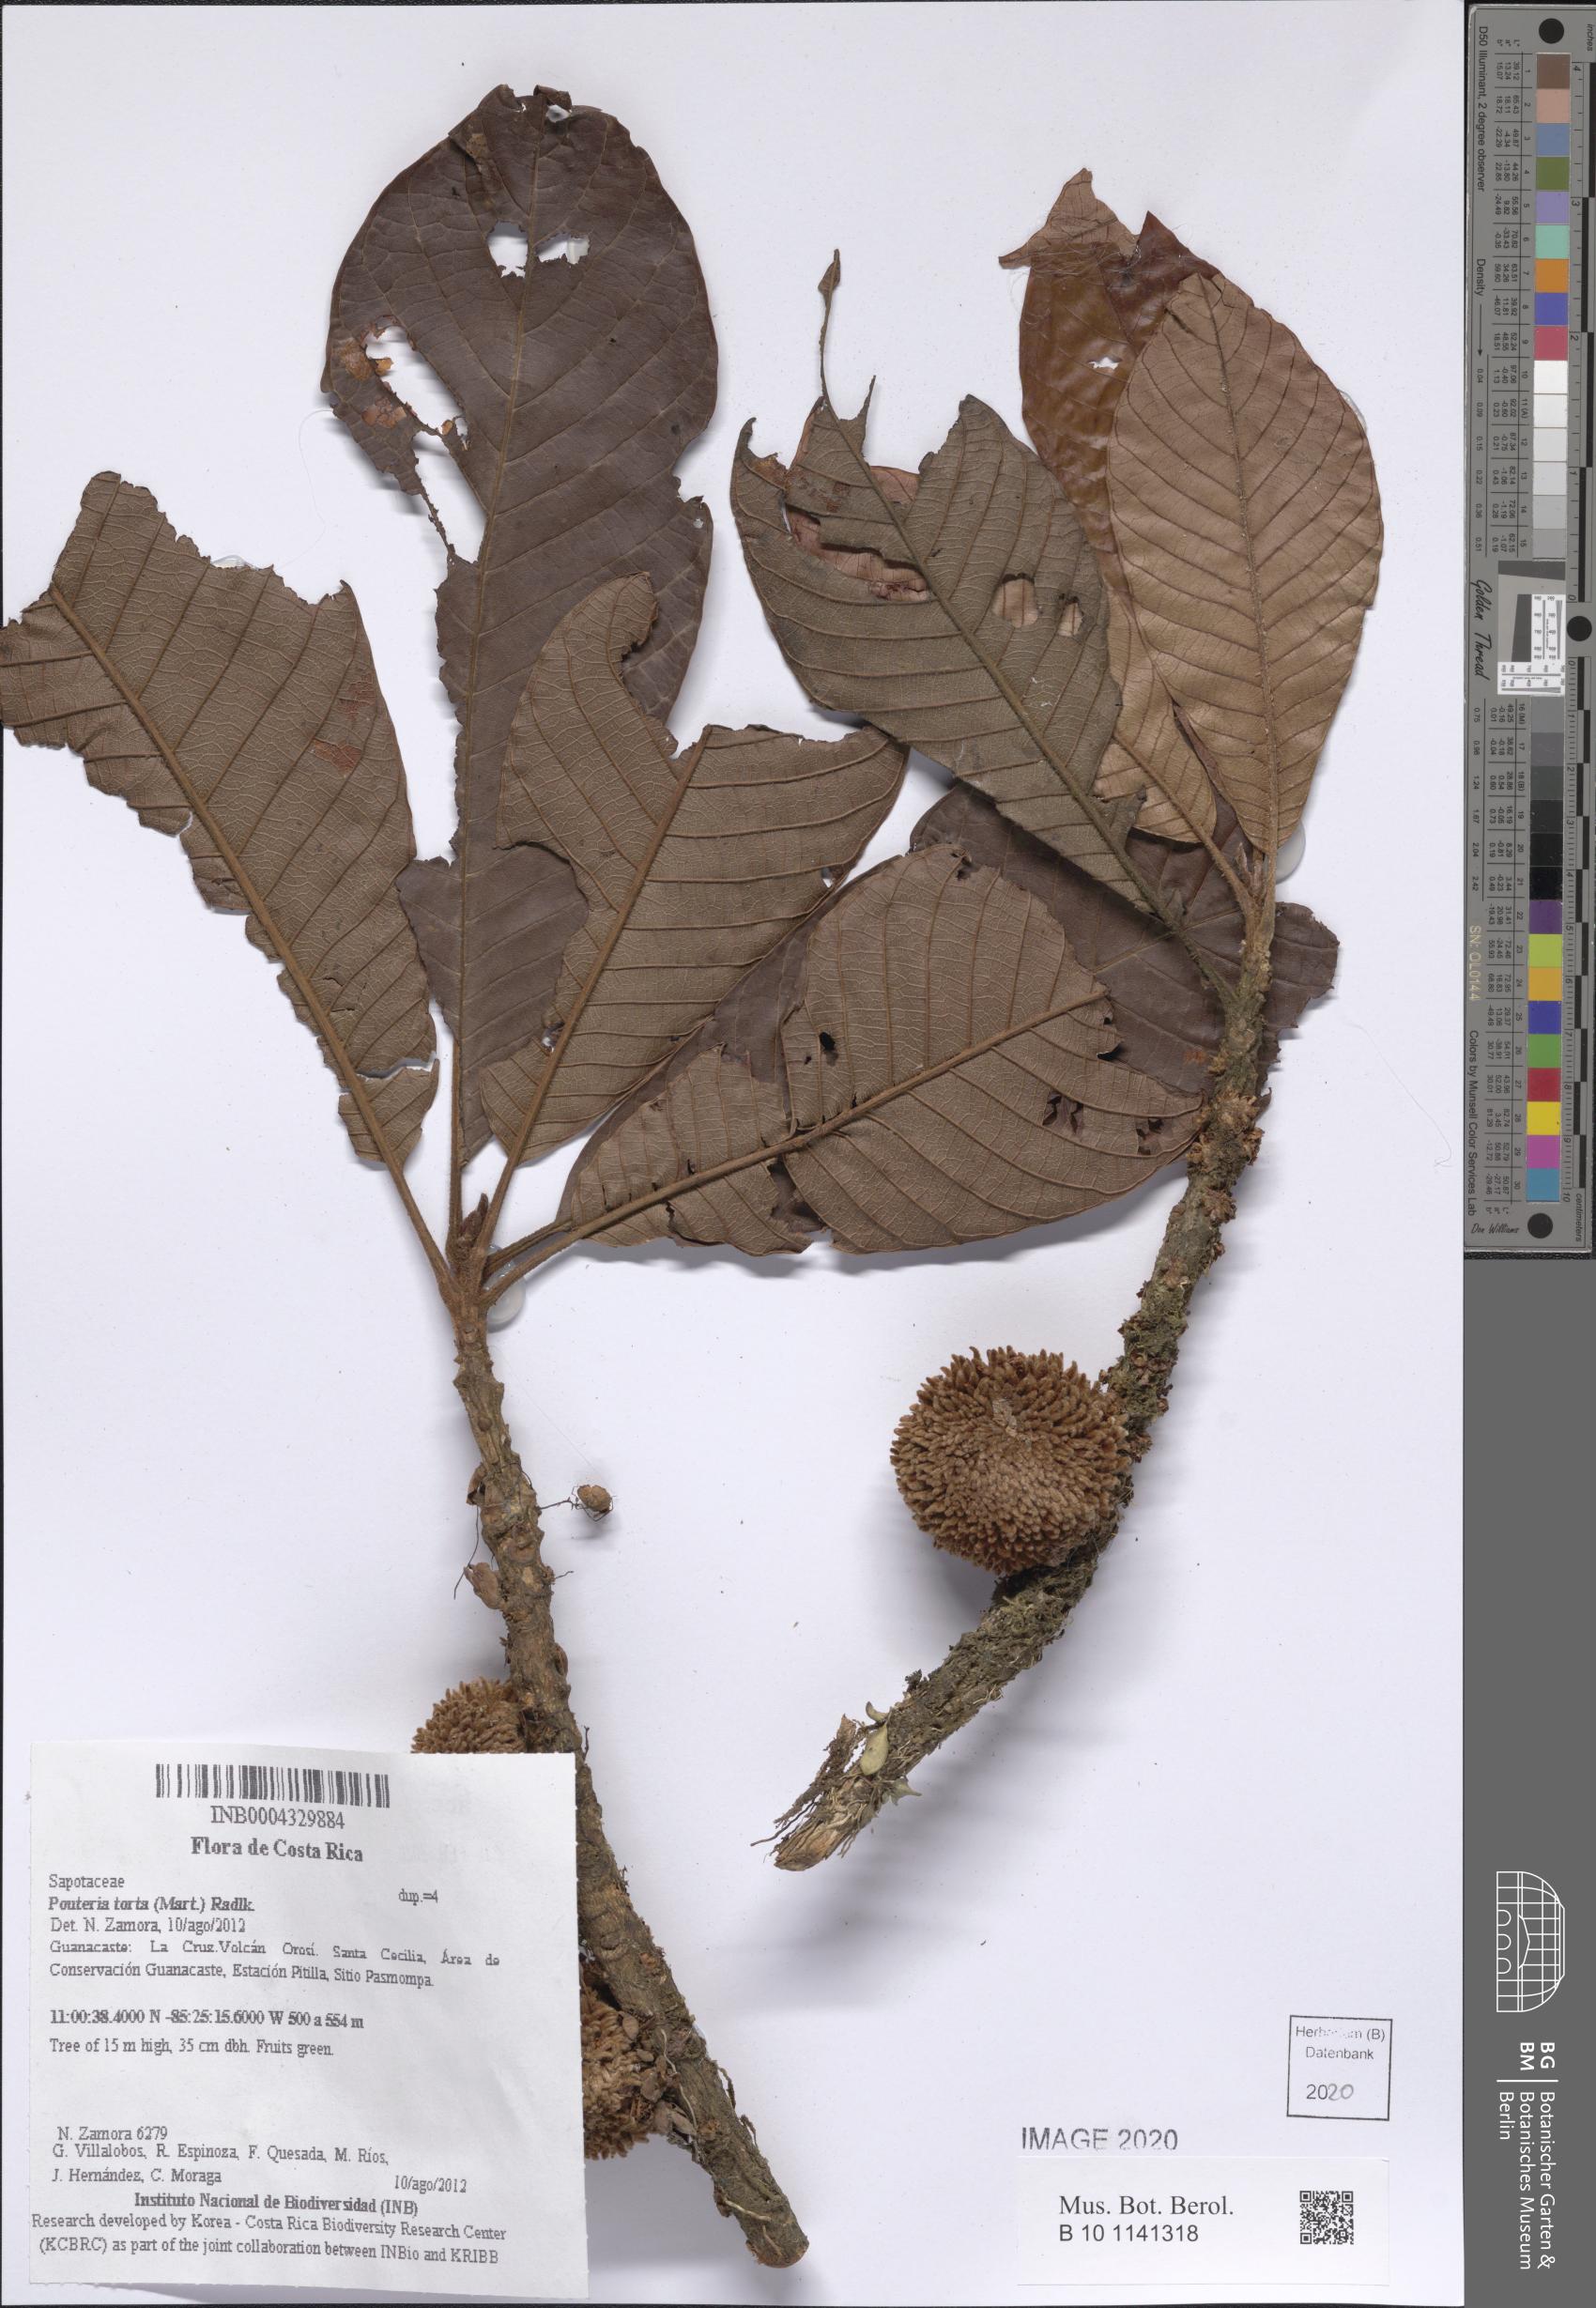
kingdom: Plantae
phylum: Tracheophyta
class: Magnoliopsida
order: Ericales
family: Sapotaceae
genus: Pouteria
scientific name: Pouteria torta
